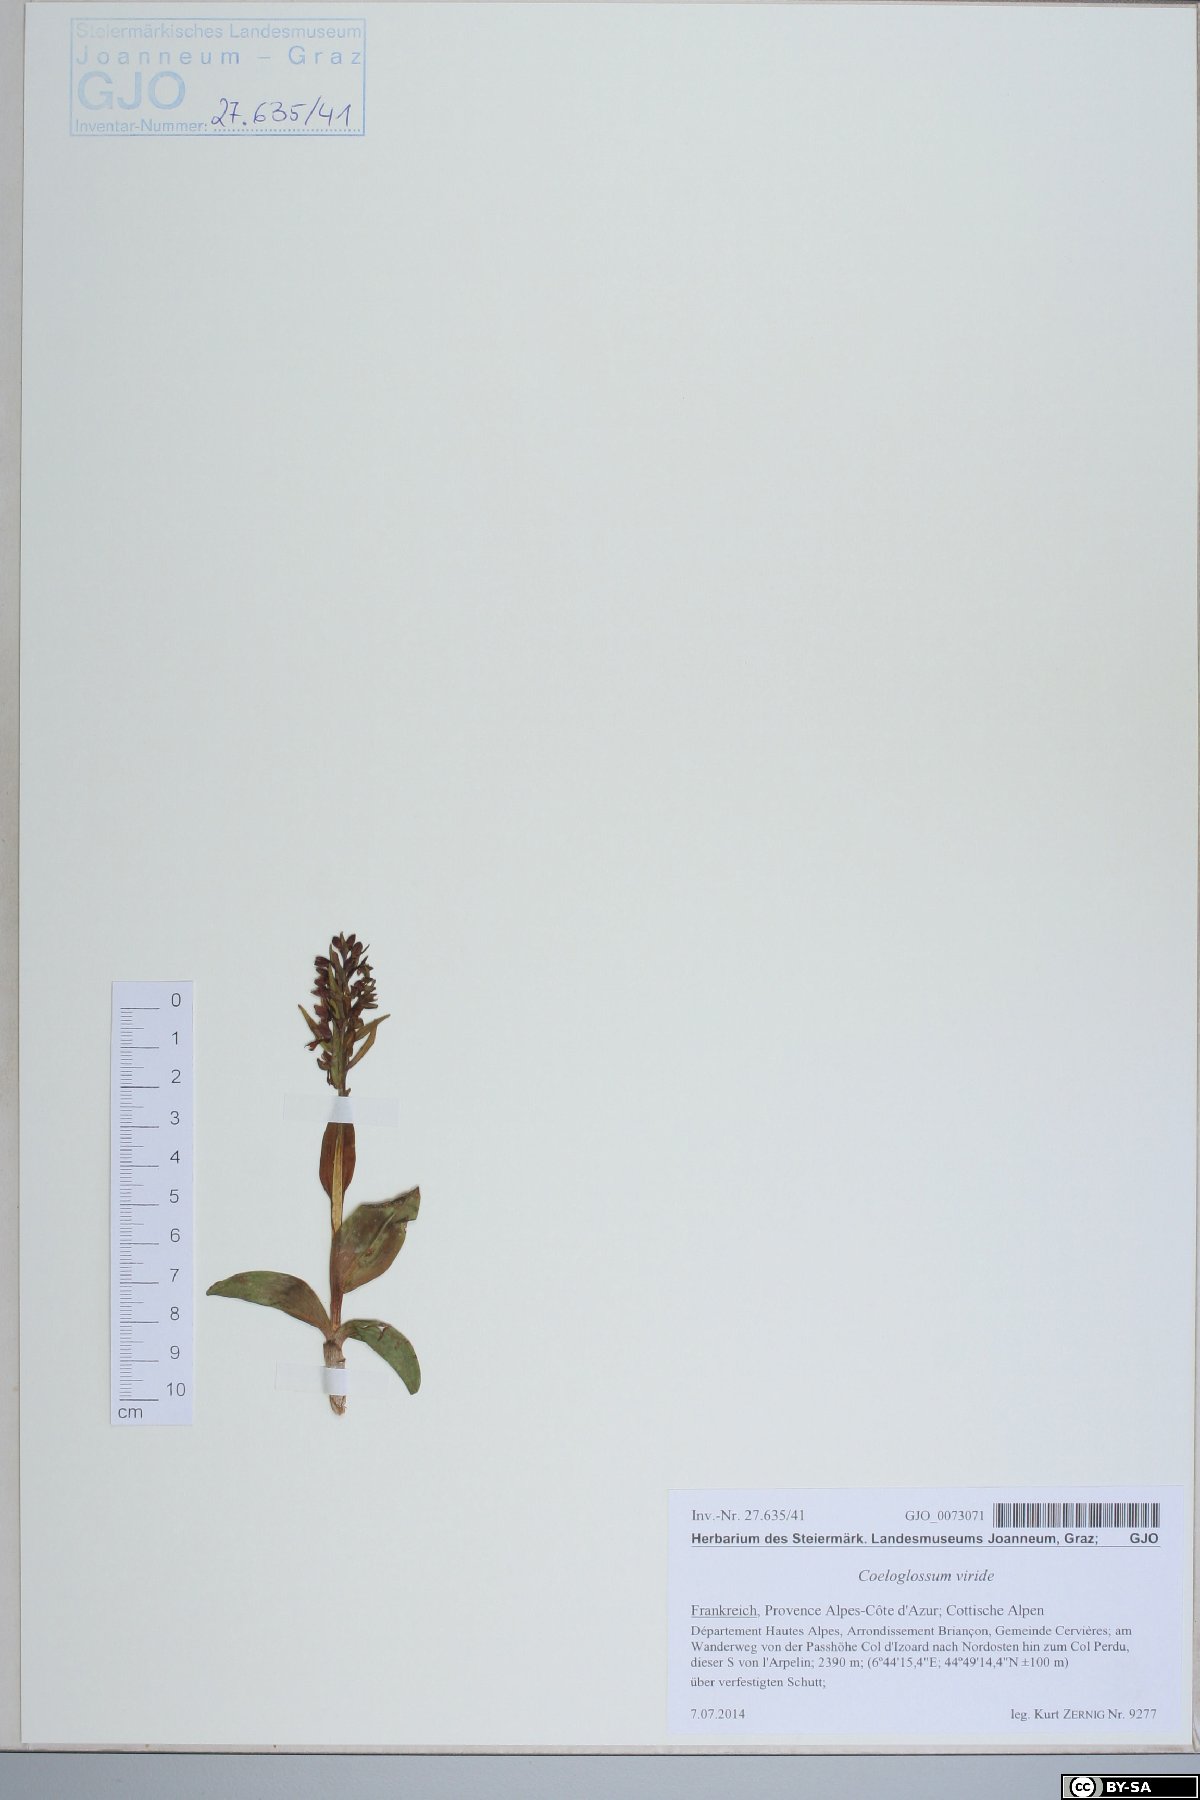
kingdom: Plantae
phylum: Tracheophyta
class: Liliopsida
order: Asparagales
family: Orchidaceae
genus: Dactylorhiza
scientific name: Dactylorhiza viridis
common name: Longbract frog orchid
